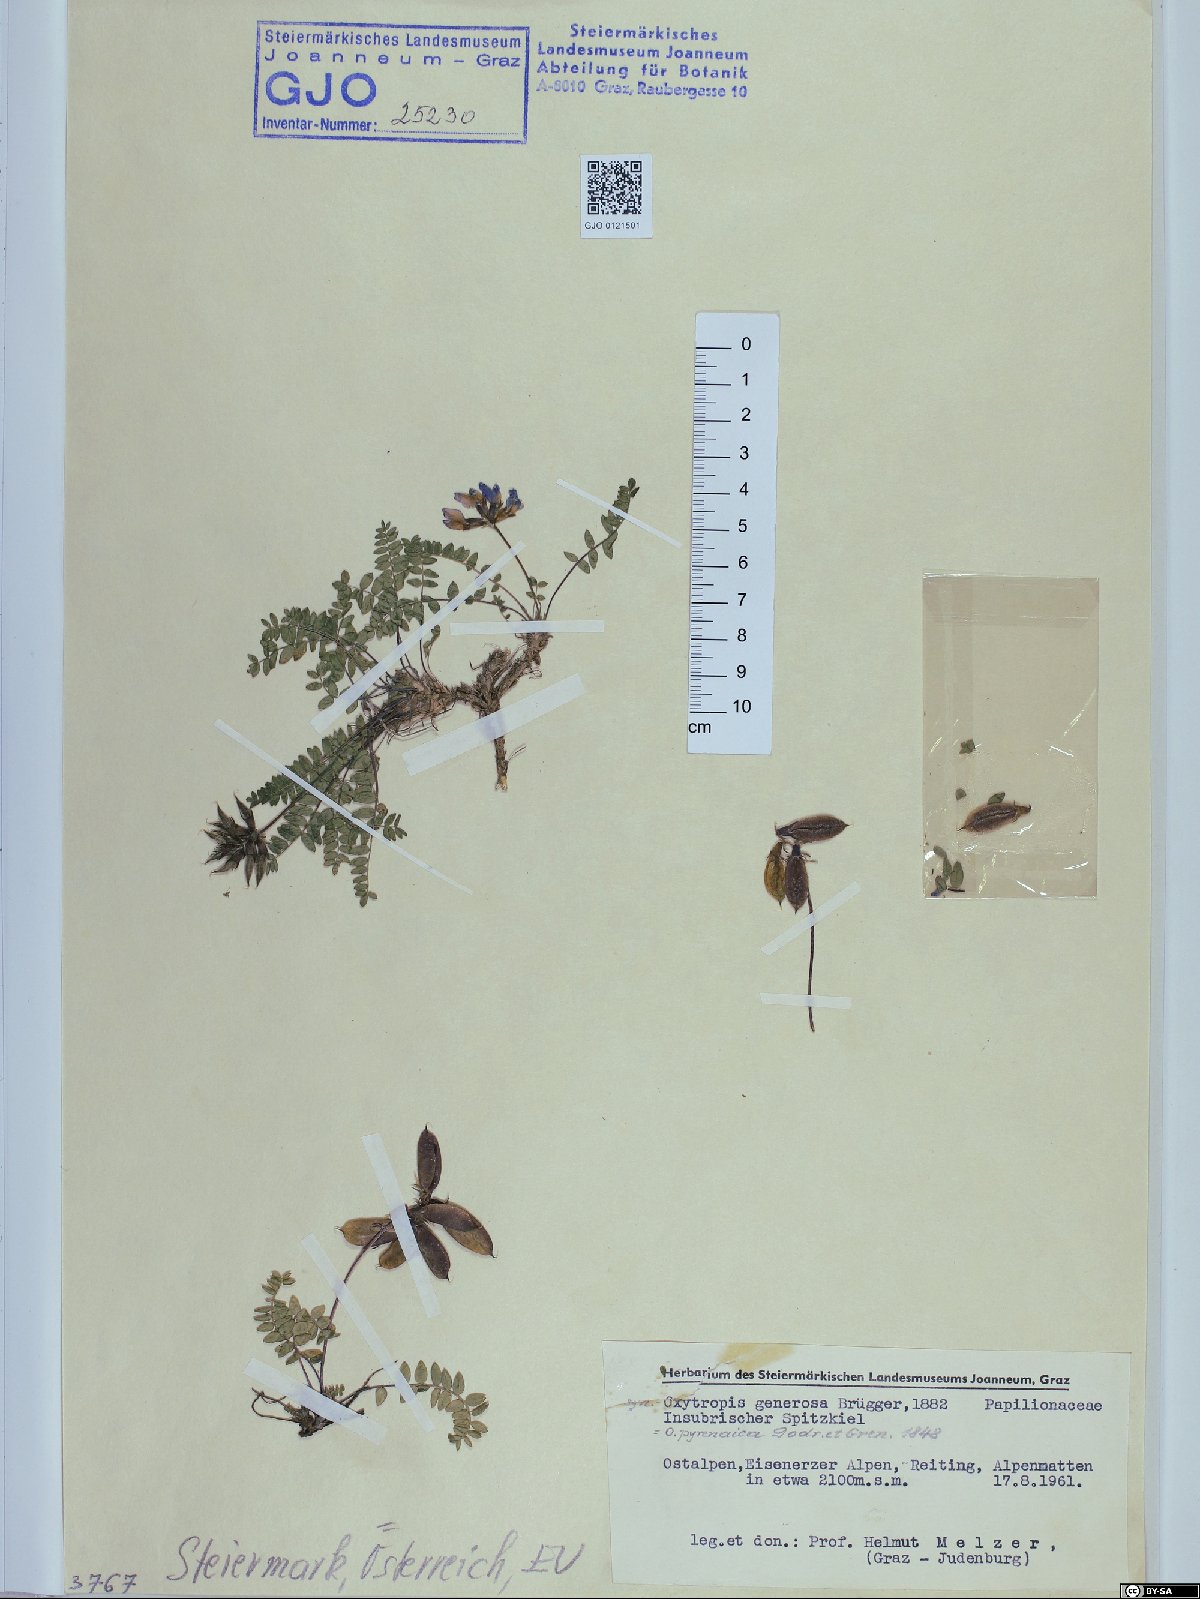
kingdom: Plantae
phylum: Tracheophyta
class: Magnoliopsida
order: Fabales
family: Fabaceae
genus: Oxytropis
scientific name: Oxytropis neglecta
